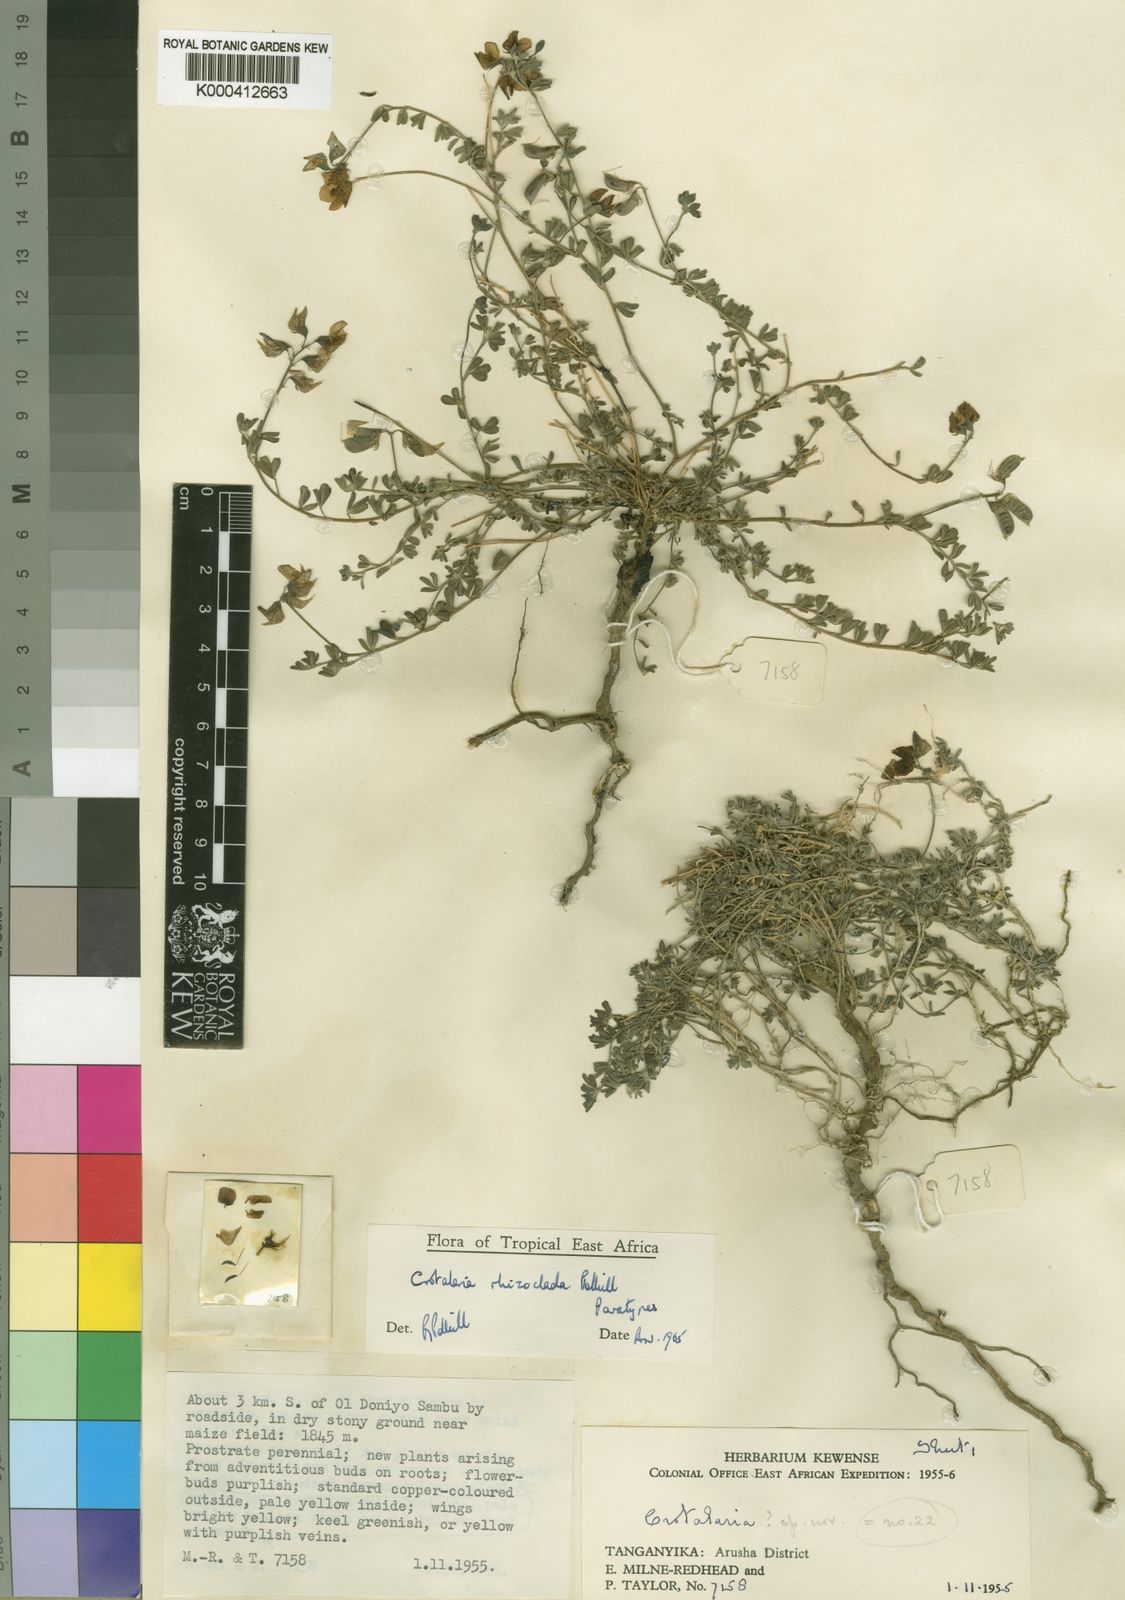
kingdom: Plantae
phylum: Tracheophyta
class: Magnoliopsida
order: Fabales
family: Fabaceae
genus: Crotalaria
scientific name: Crotalaria rhizoclada
